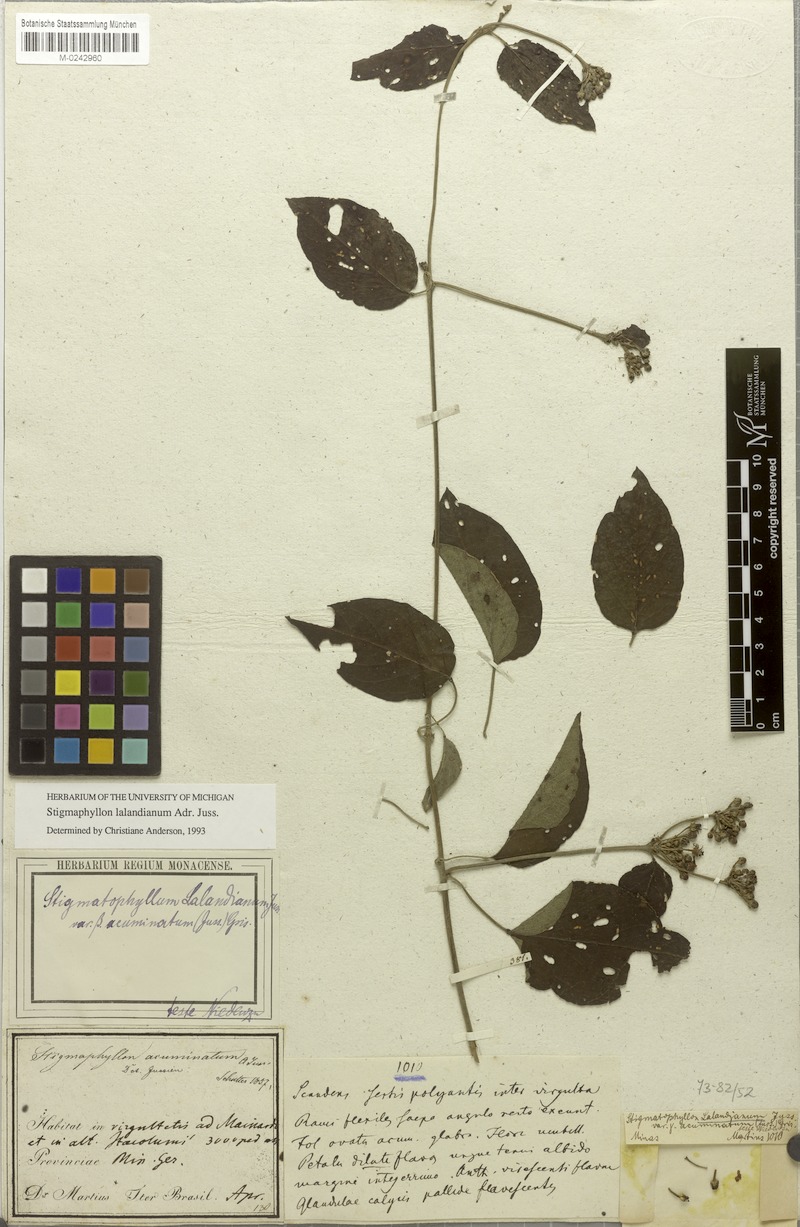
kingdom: Plantae
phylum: Tracheophyta
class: Magnoliopsida
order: Malpighiales
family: Malpighiaceae
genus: Stigmaphyllon
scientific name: Stigmaphyllon lalandianum
